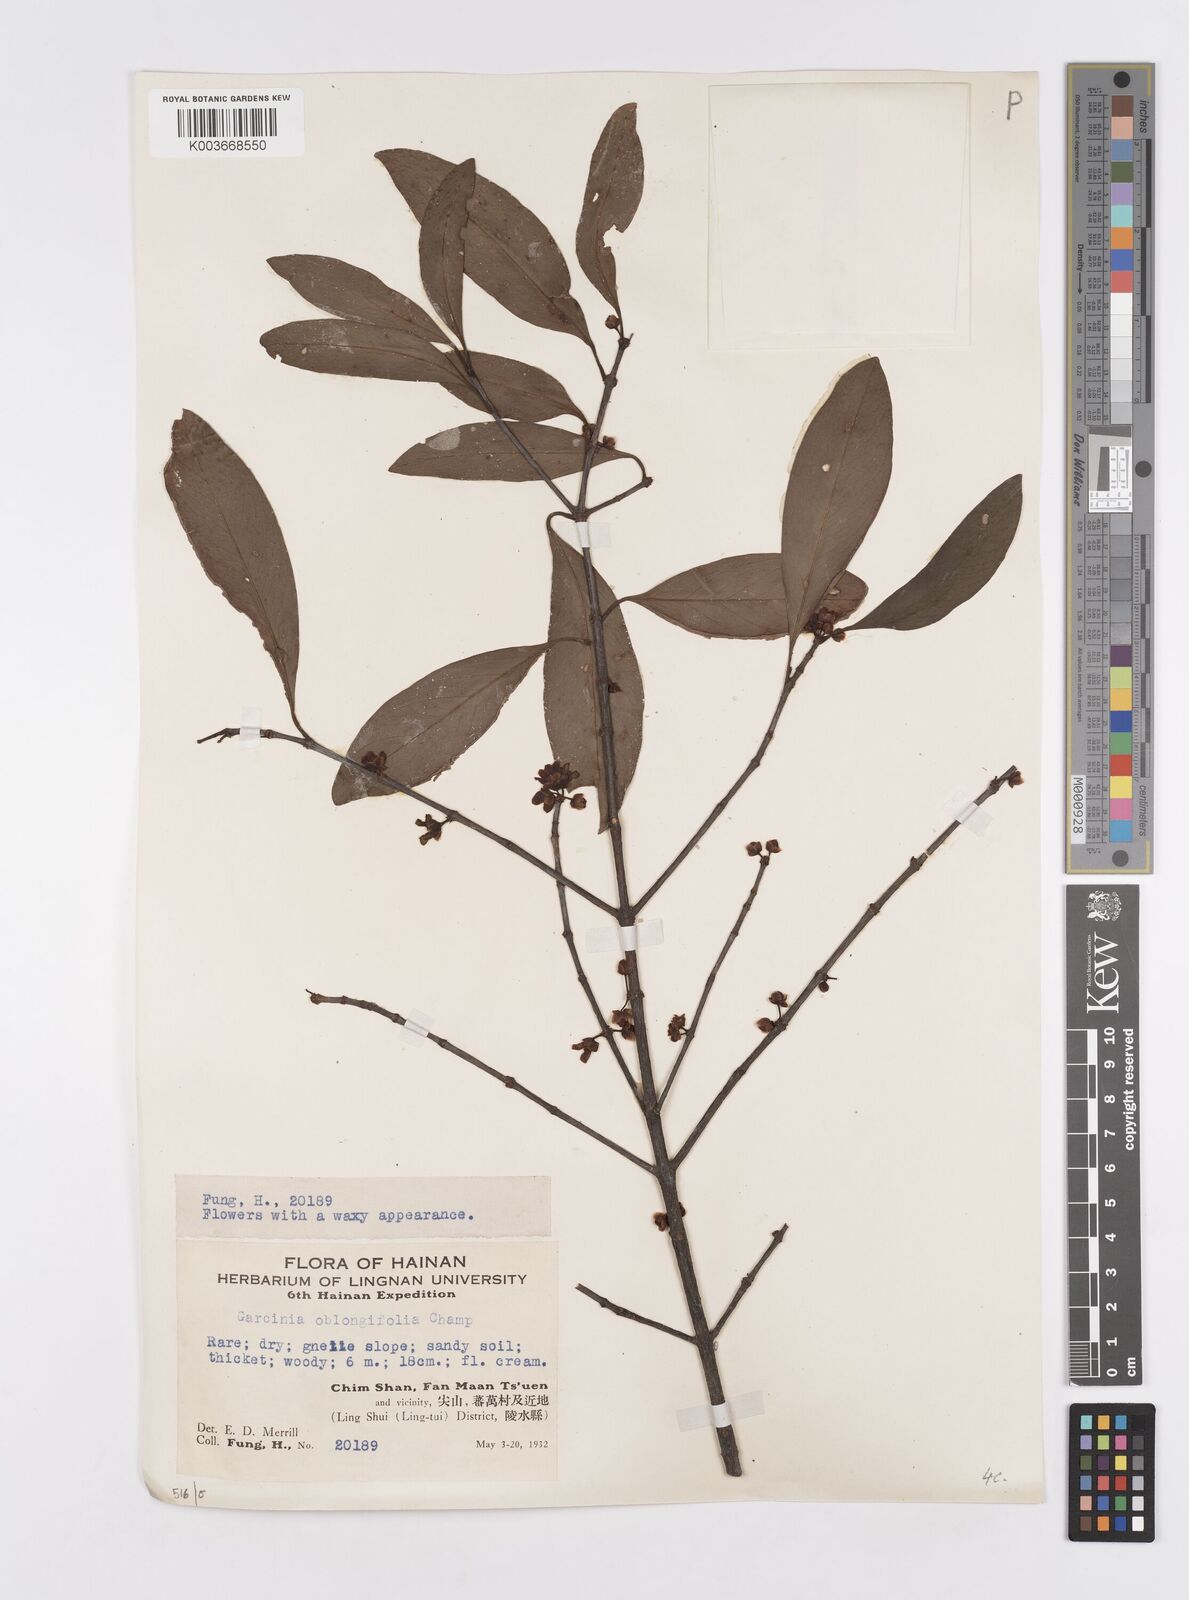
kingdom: Plantae
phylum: Tracheophyta
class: Magnoliopsida
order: Malpighiales
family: Clusiaceae
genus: Garcinia
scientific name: Garcinia oblongifolia
